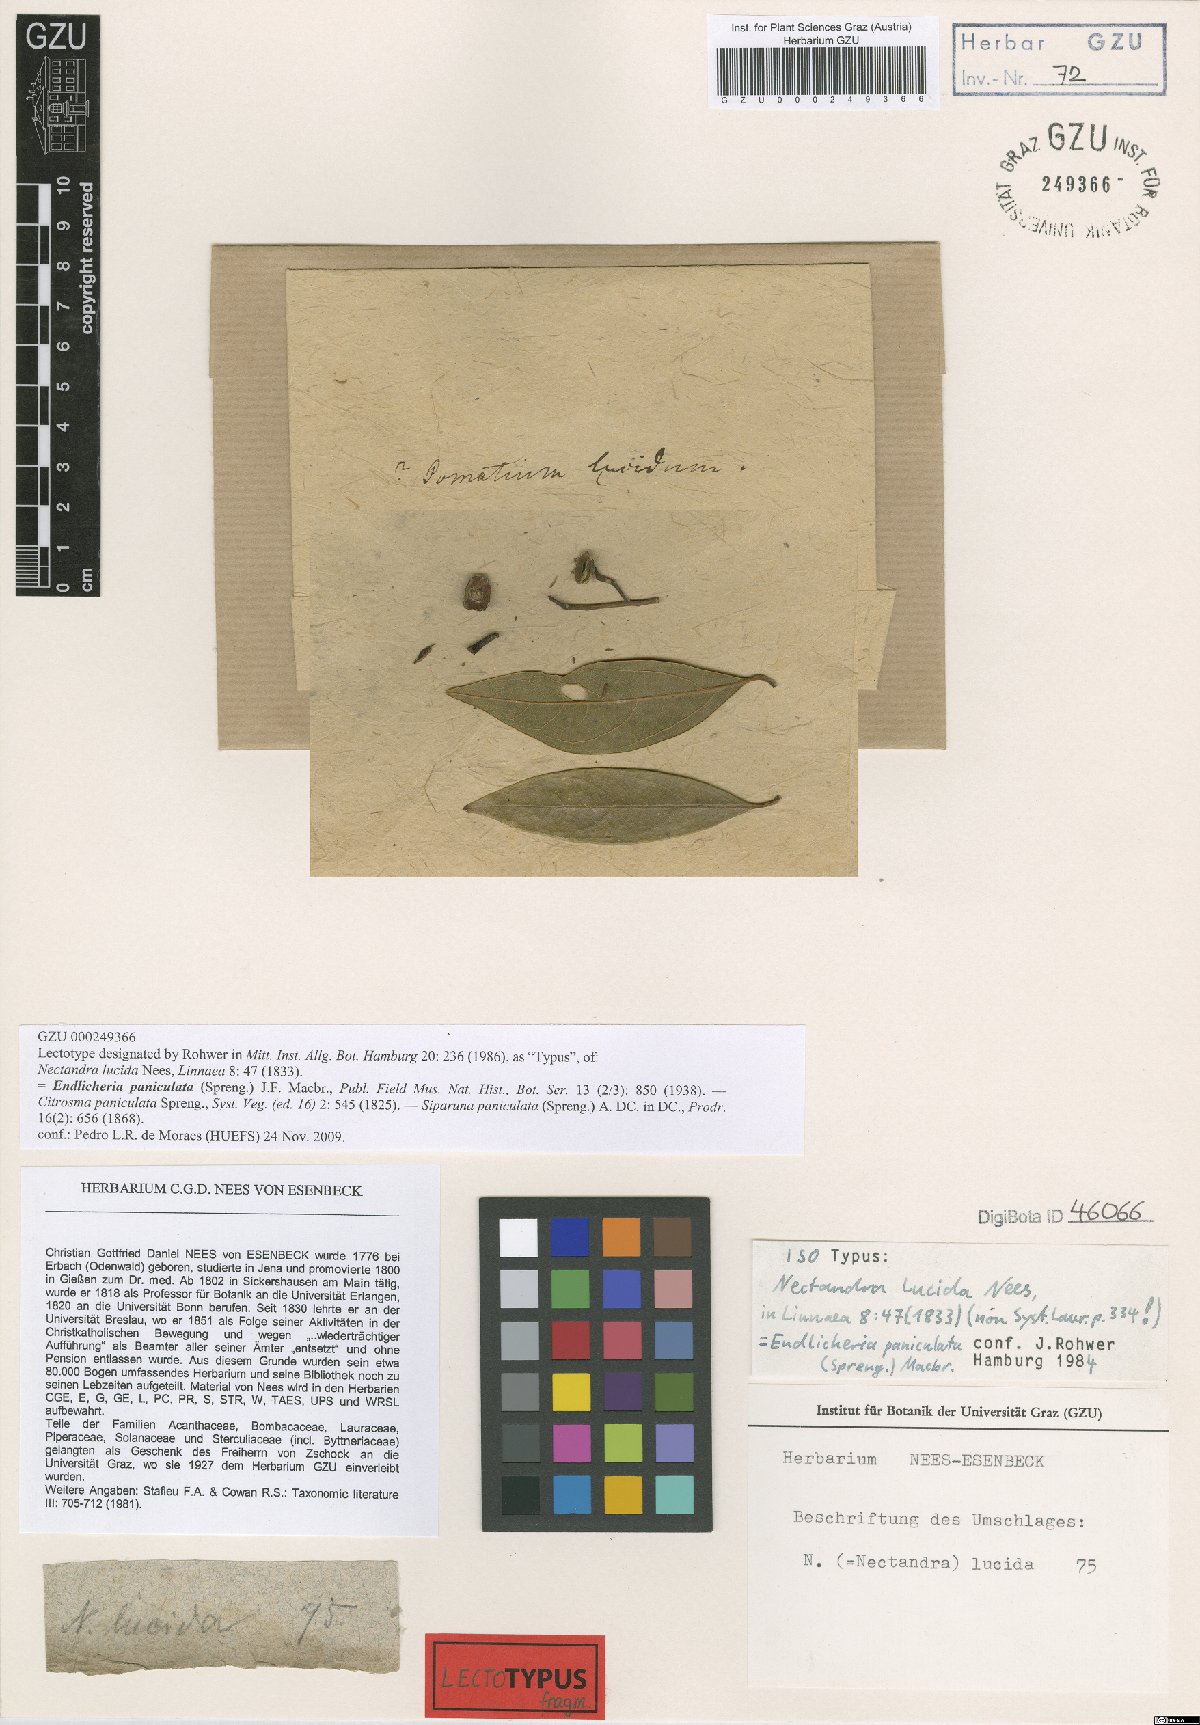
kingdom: Plantae
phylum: Tracheophyta
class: Magnoliopsida
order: Laurales
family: Lauraceae
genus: Endlicheria
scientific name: Endlicheria paniculata
